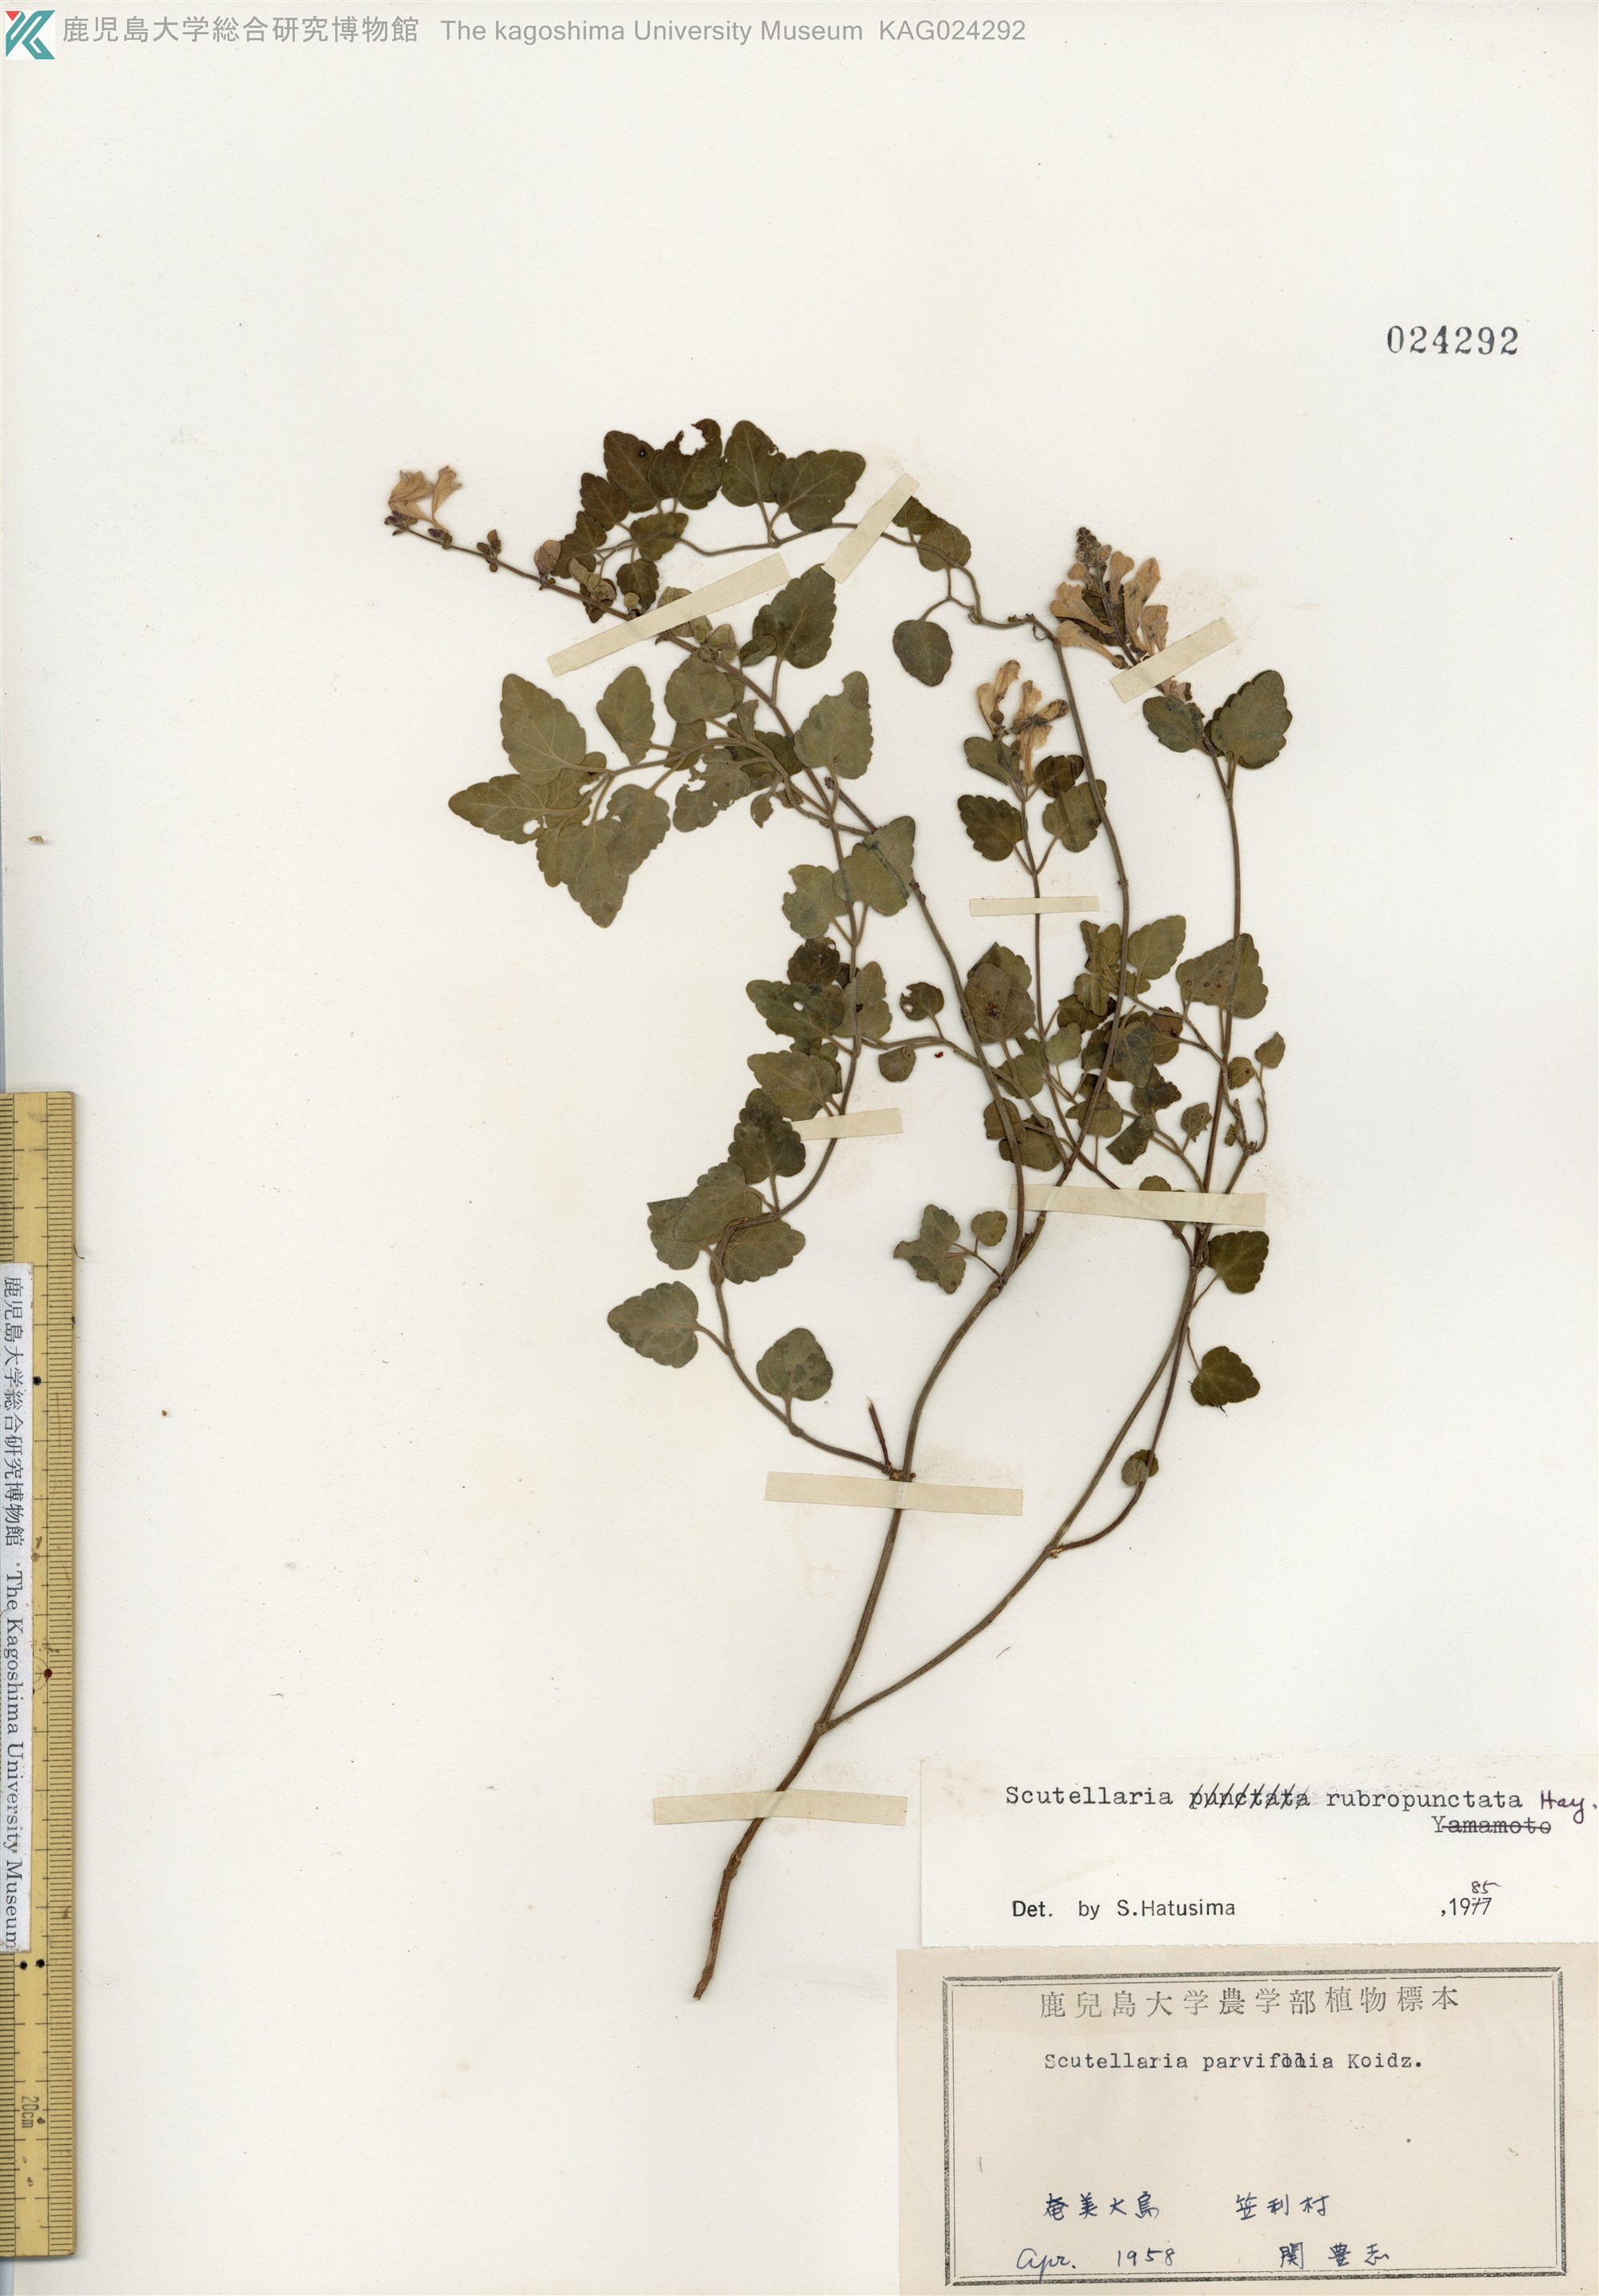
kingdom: Plantae
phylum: Tracheophyta
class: Magnoliopsida
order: Lamiales
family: Lamiaceae
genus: Scutellaria
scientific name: Scutellaria rubropunctata
